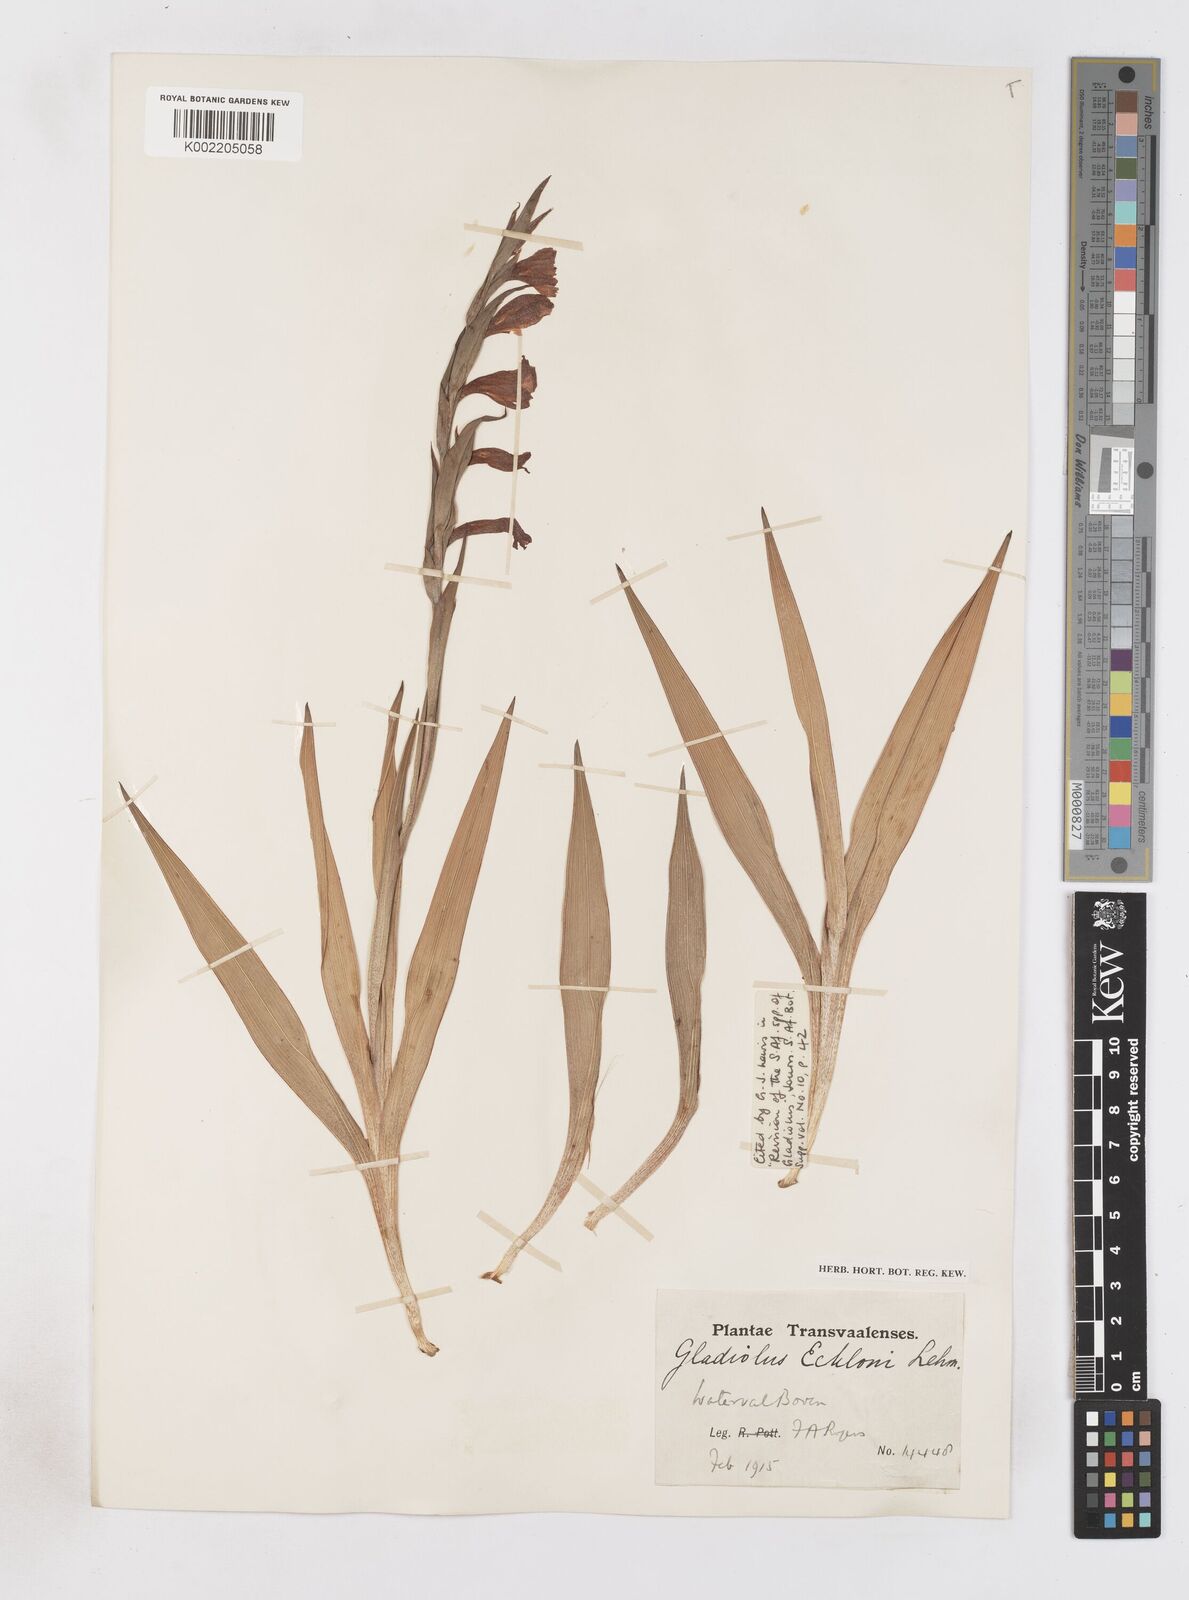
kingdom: Plantae
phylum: Tracheophyta
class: Liliopsida
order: Asparagales
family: Iridaceae
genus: Gladiolus
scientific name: Gladiolus ecklonii
